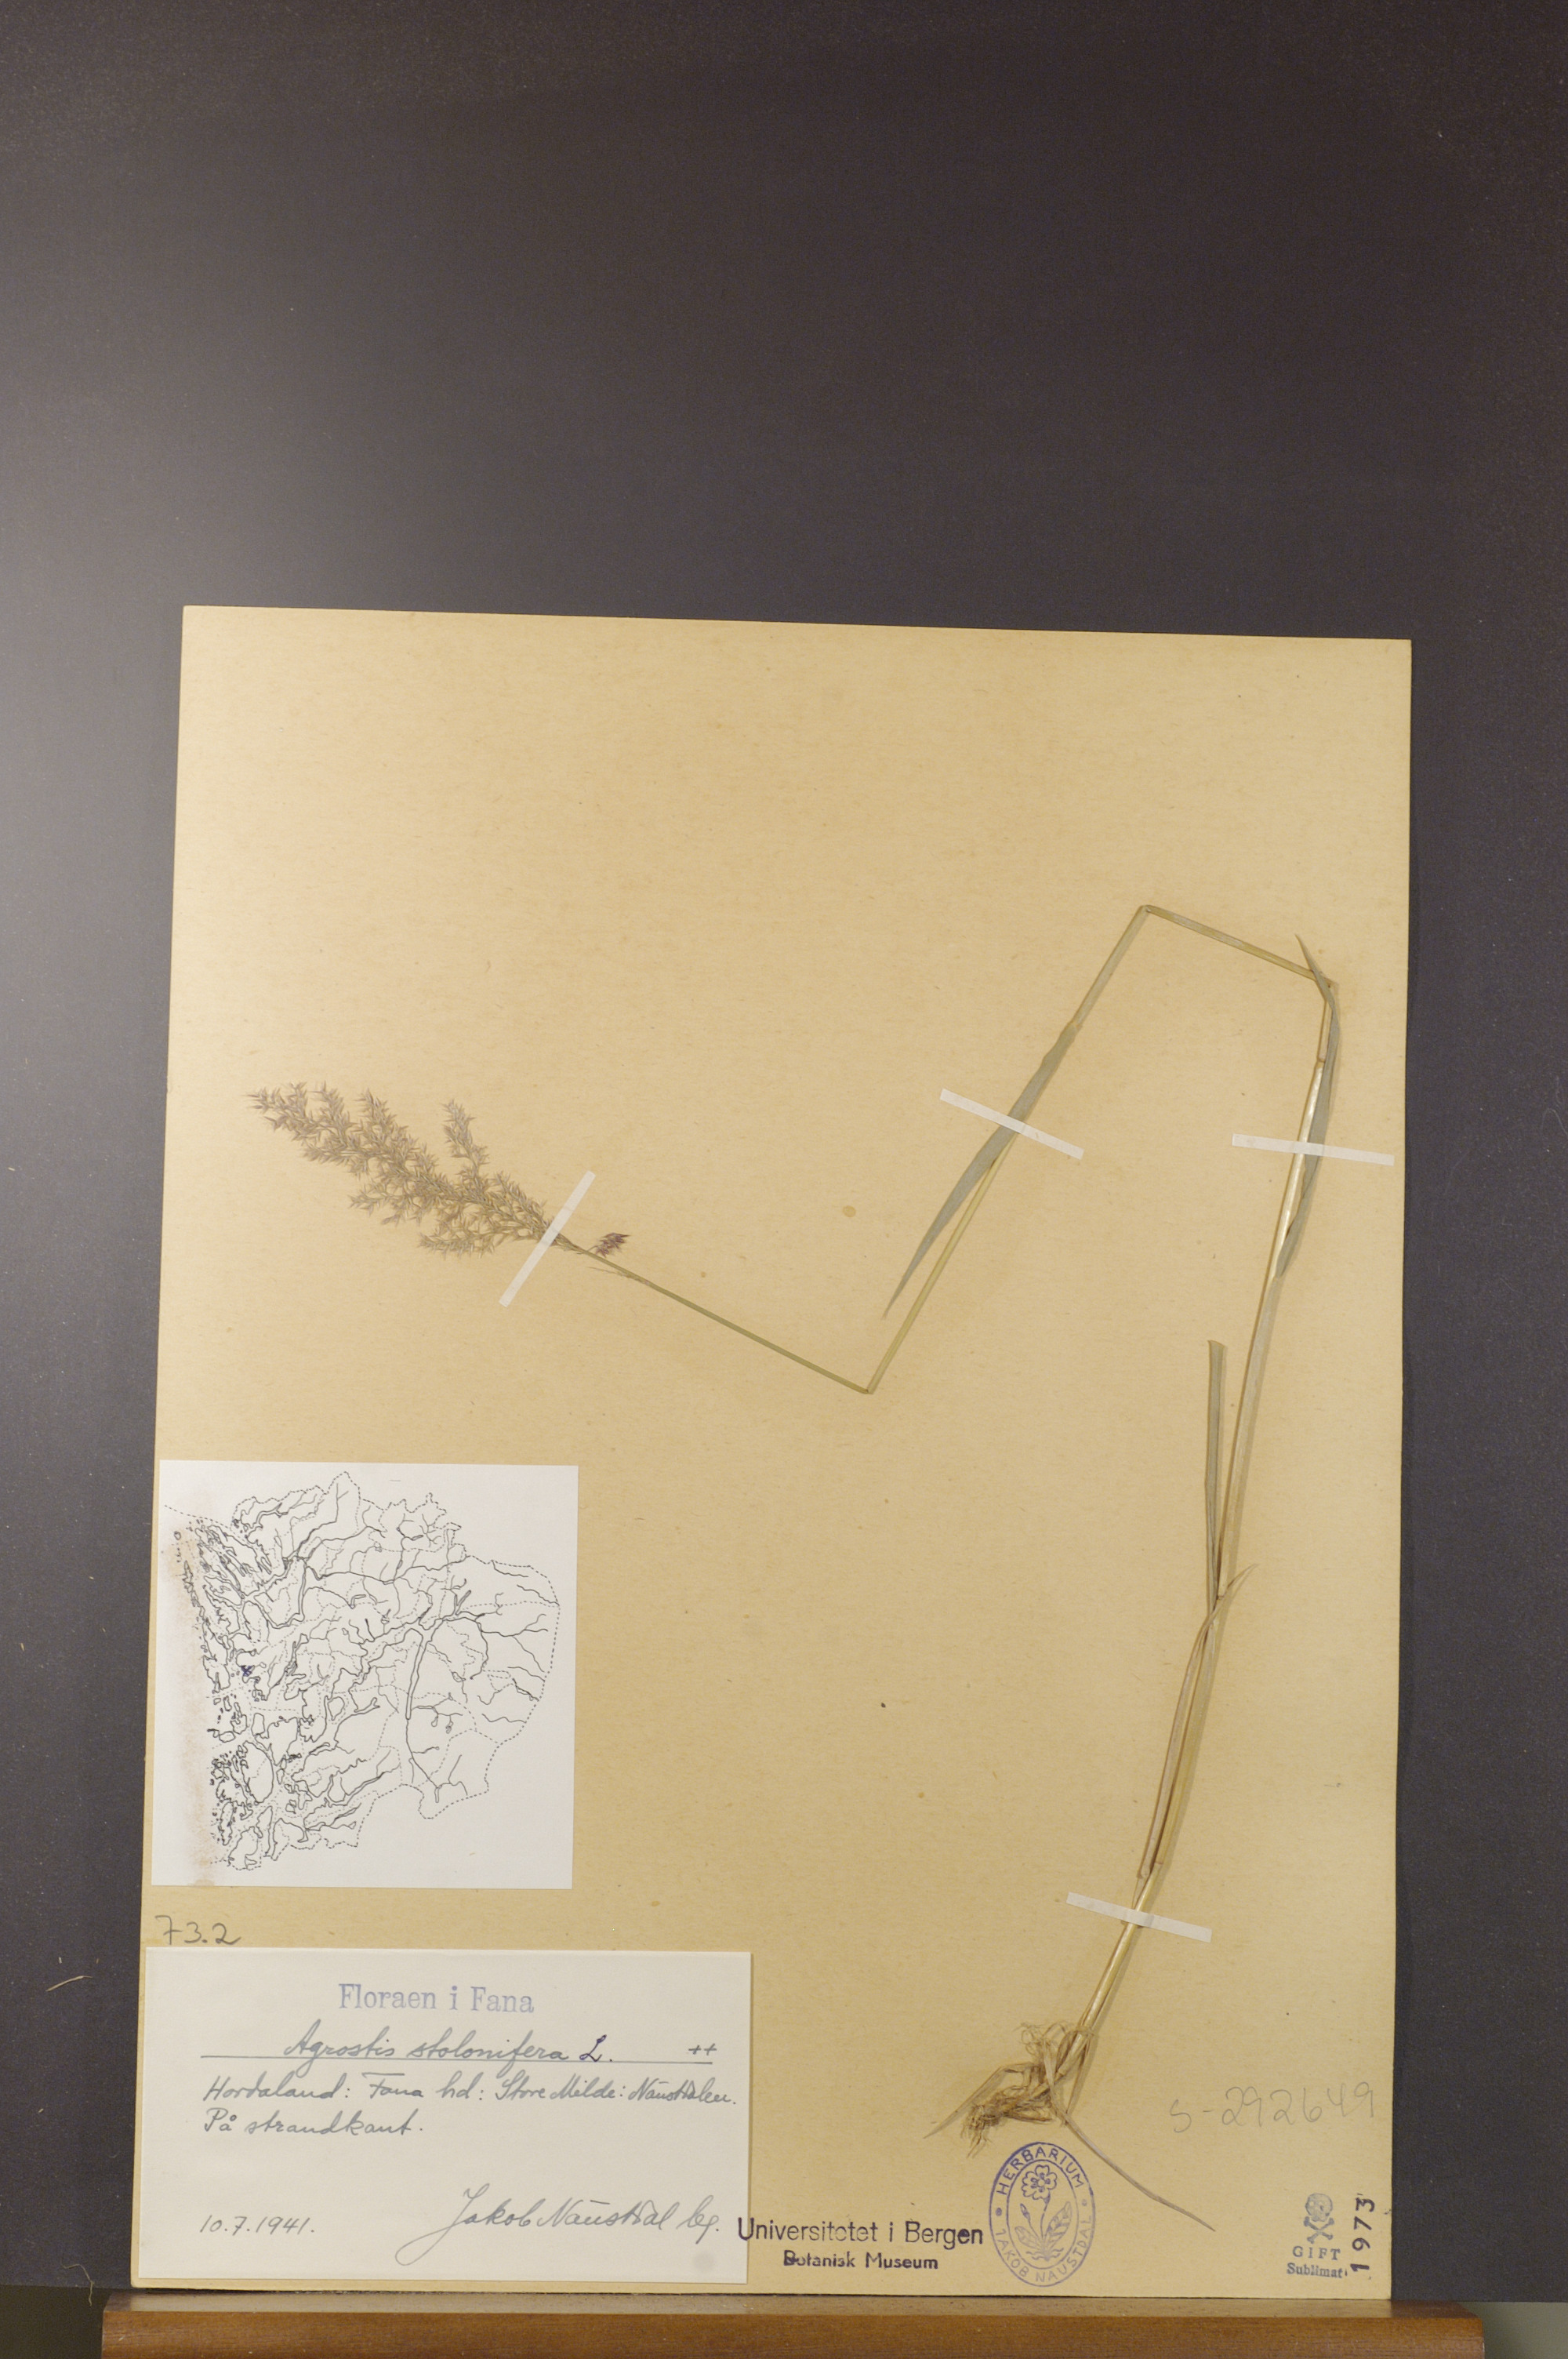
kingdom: Plantae
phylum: Tracheophyta
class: Liliopsida
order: Poales
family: Poaceae
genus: Agrostis
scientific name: Agrostis stolonifera
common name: Creeping bentgrass
